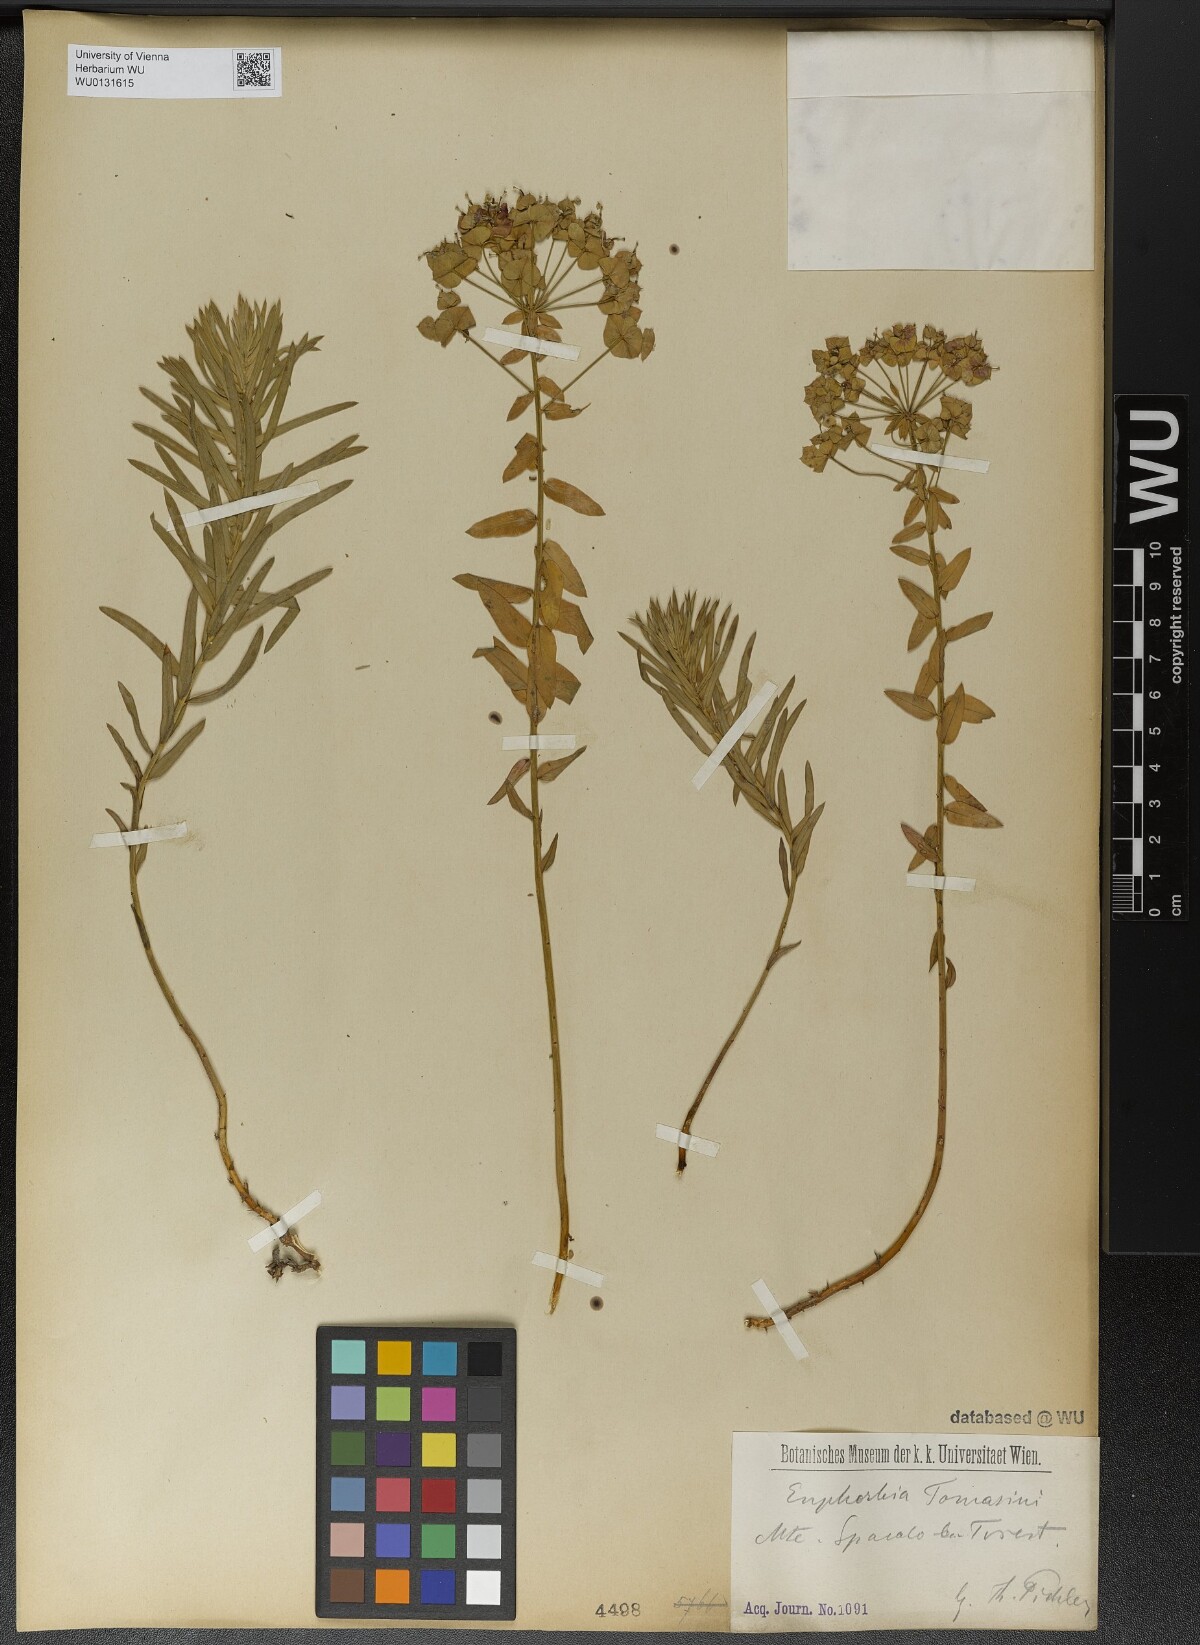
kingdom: Plantae
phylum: Tracheophyta
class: Magnoliopsida
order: Malpighiales
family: Euphorbiaceae
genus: Euphorbia
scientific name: Euphorbia tommasiniana
